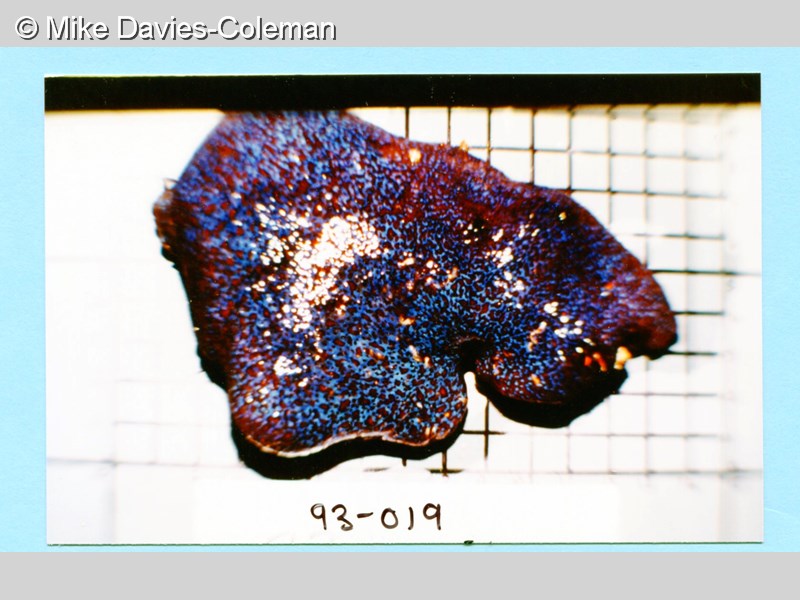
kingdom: Animalia
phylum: Chordata
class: Ascidiacea
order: Aplousobranchia
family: Polycitoridae
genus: Eudistoma
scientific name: Eudistoma
